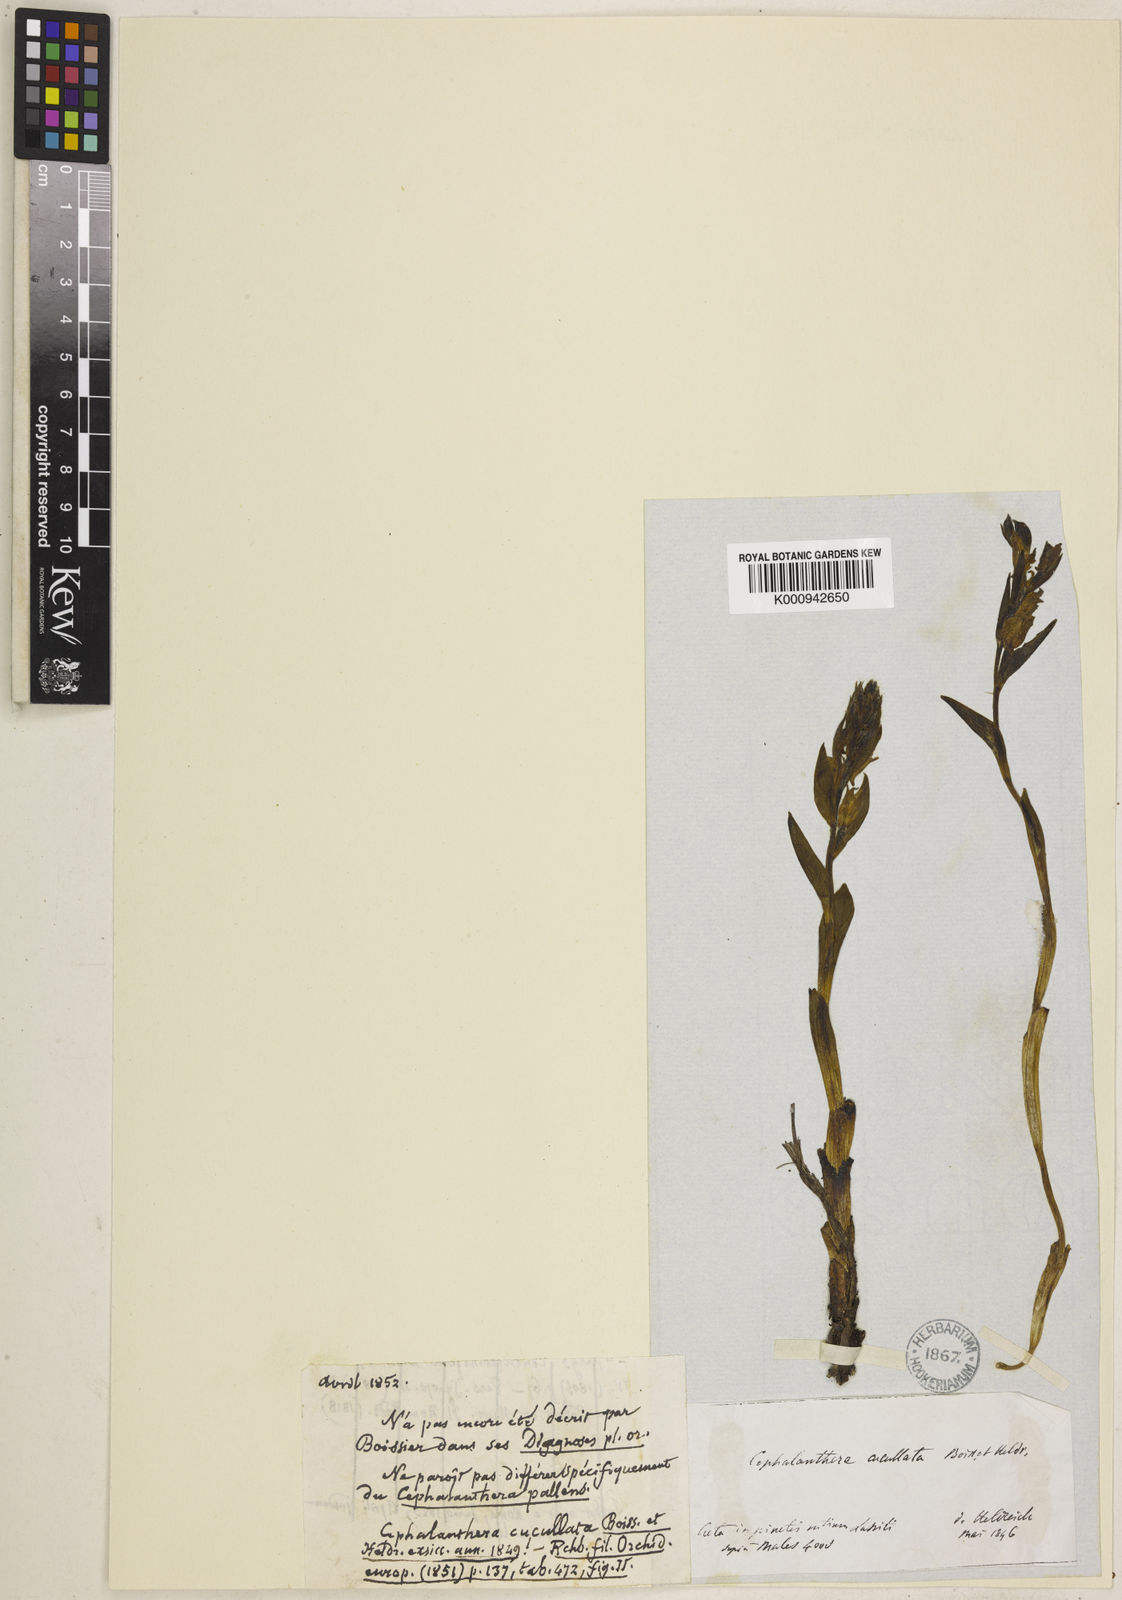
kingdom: Plantae
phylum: Tracheophyta
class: Liliopsida
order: Asparagales
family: Orchidaceae
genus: Cephalanthera
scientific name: Cephalanthera cucullata
